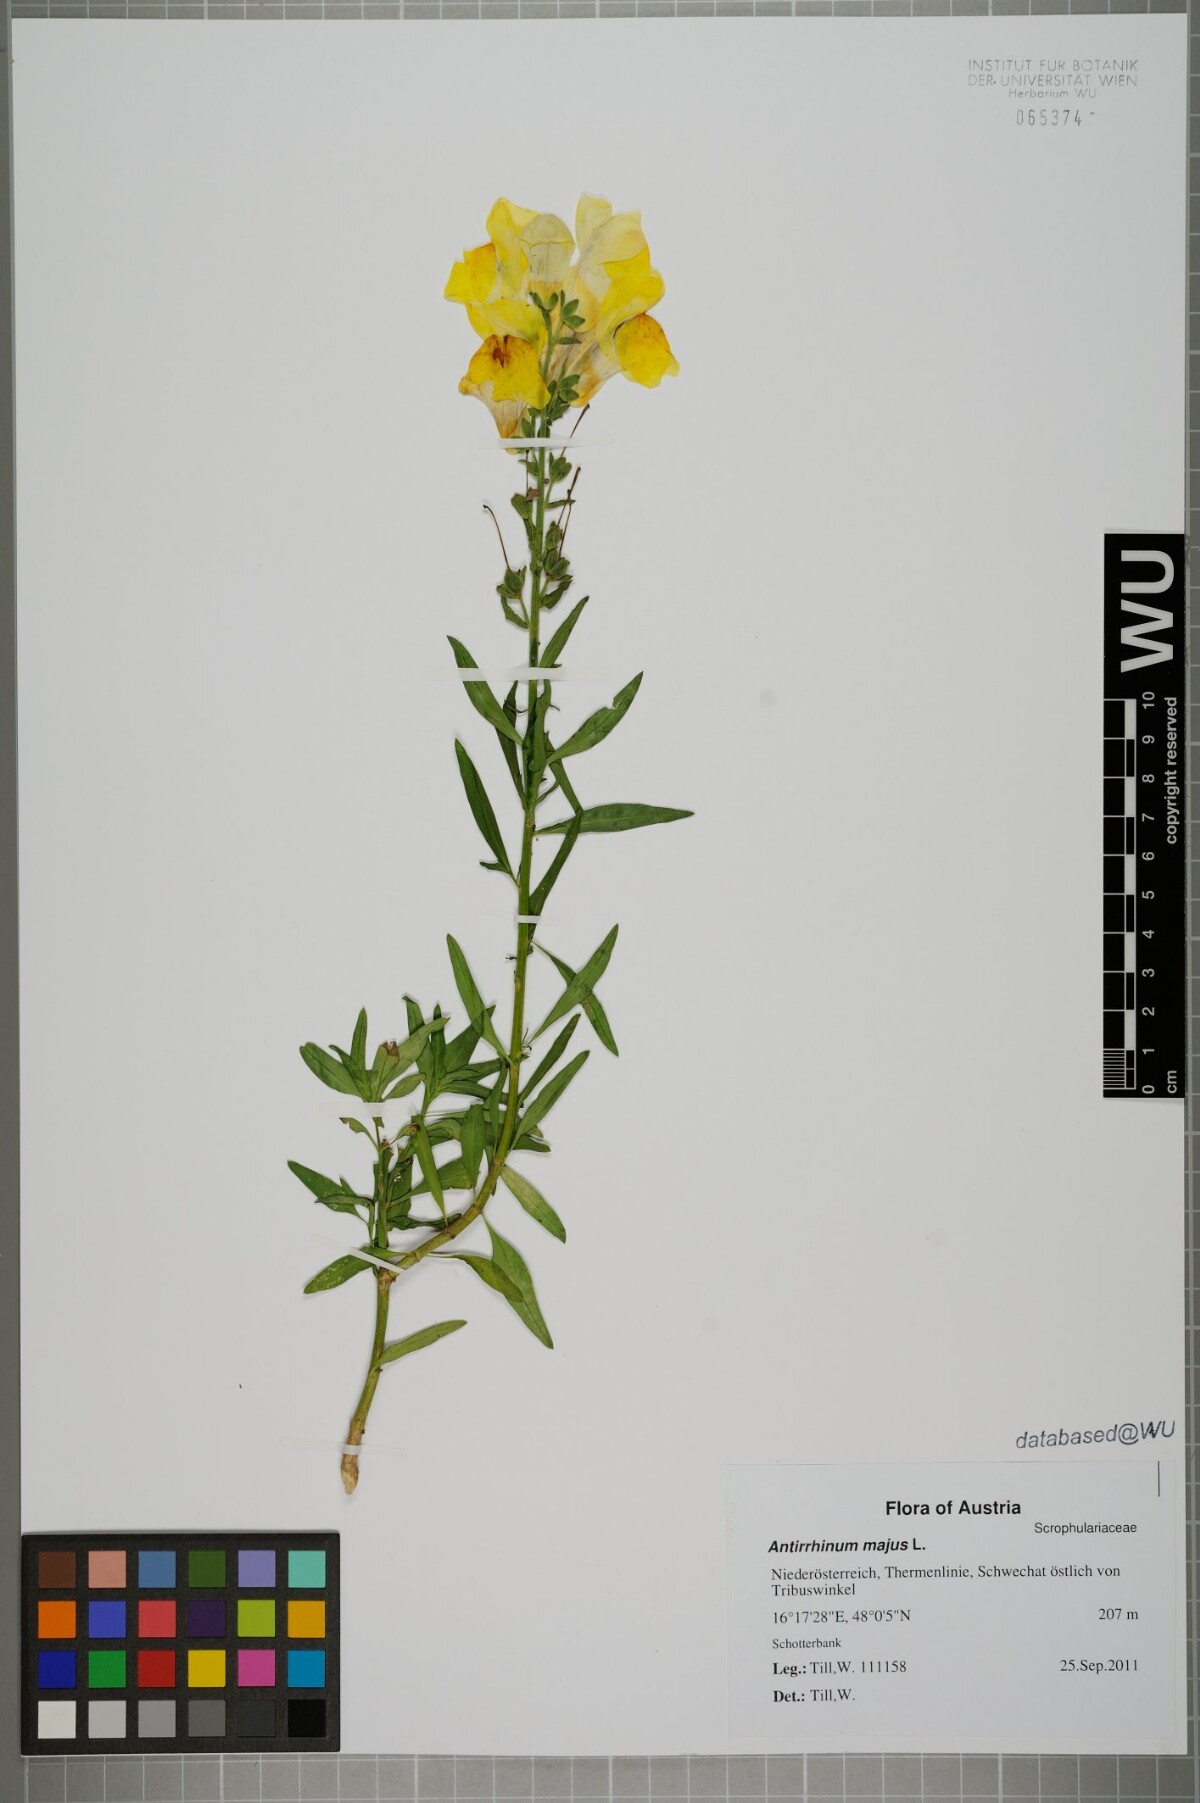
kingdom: Plantae
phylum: Tracheophyta
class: Magnoliopsida
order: Lamiales
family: Plantaginaceae
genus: Antirrhinum
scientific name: Antirrhinum majus
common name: Snapdragon
